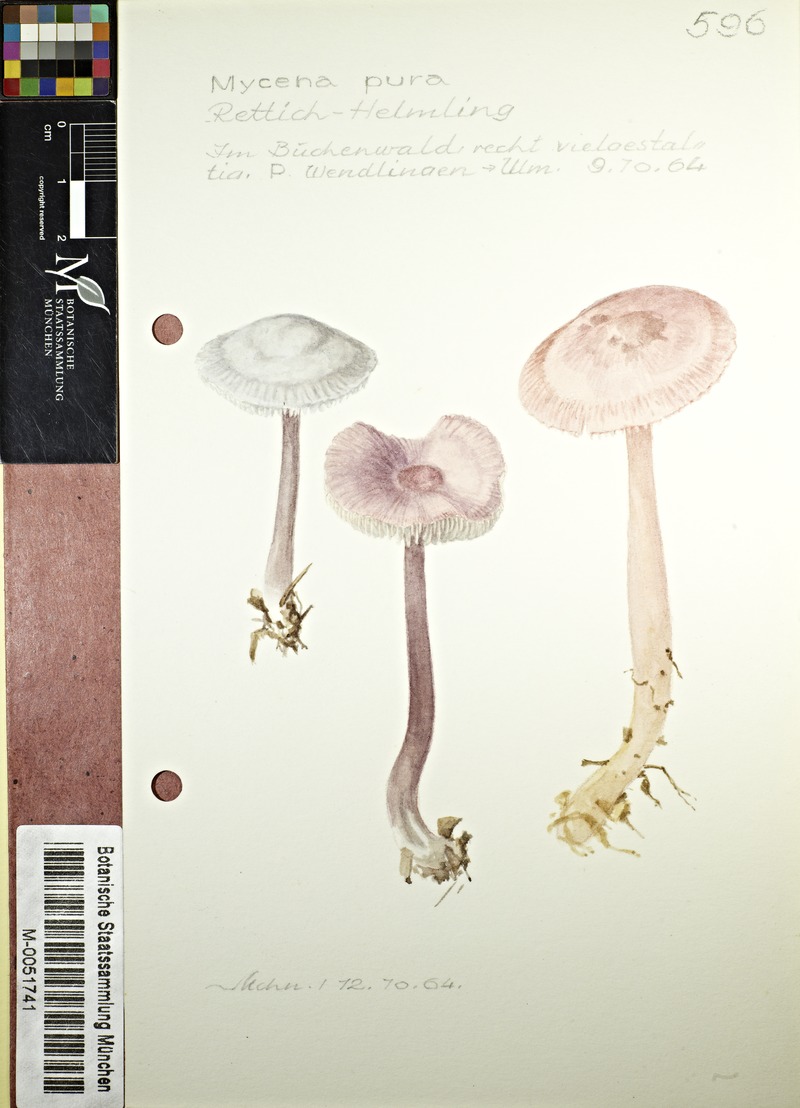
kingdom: Fungi
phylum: Basidiomycota
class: Agaricomycetes
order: Agaricales
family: Mycenaceae
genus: Mycena
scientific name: Mycena pura
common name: Lilac bonnet
